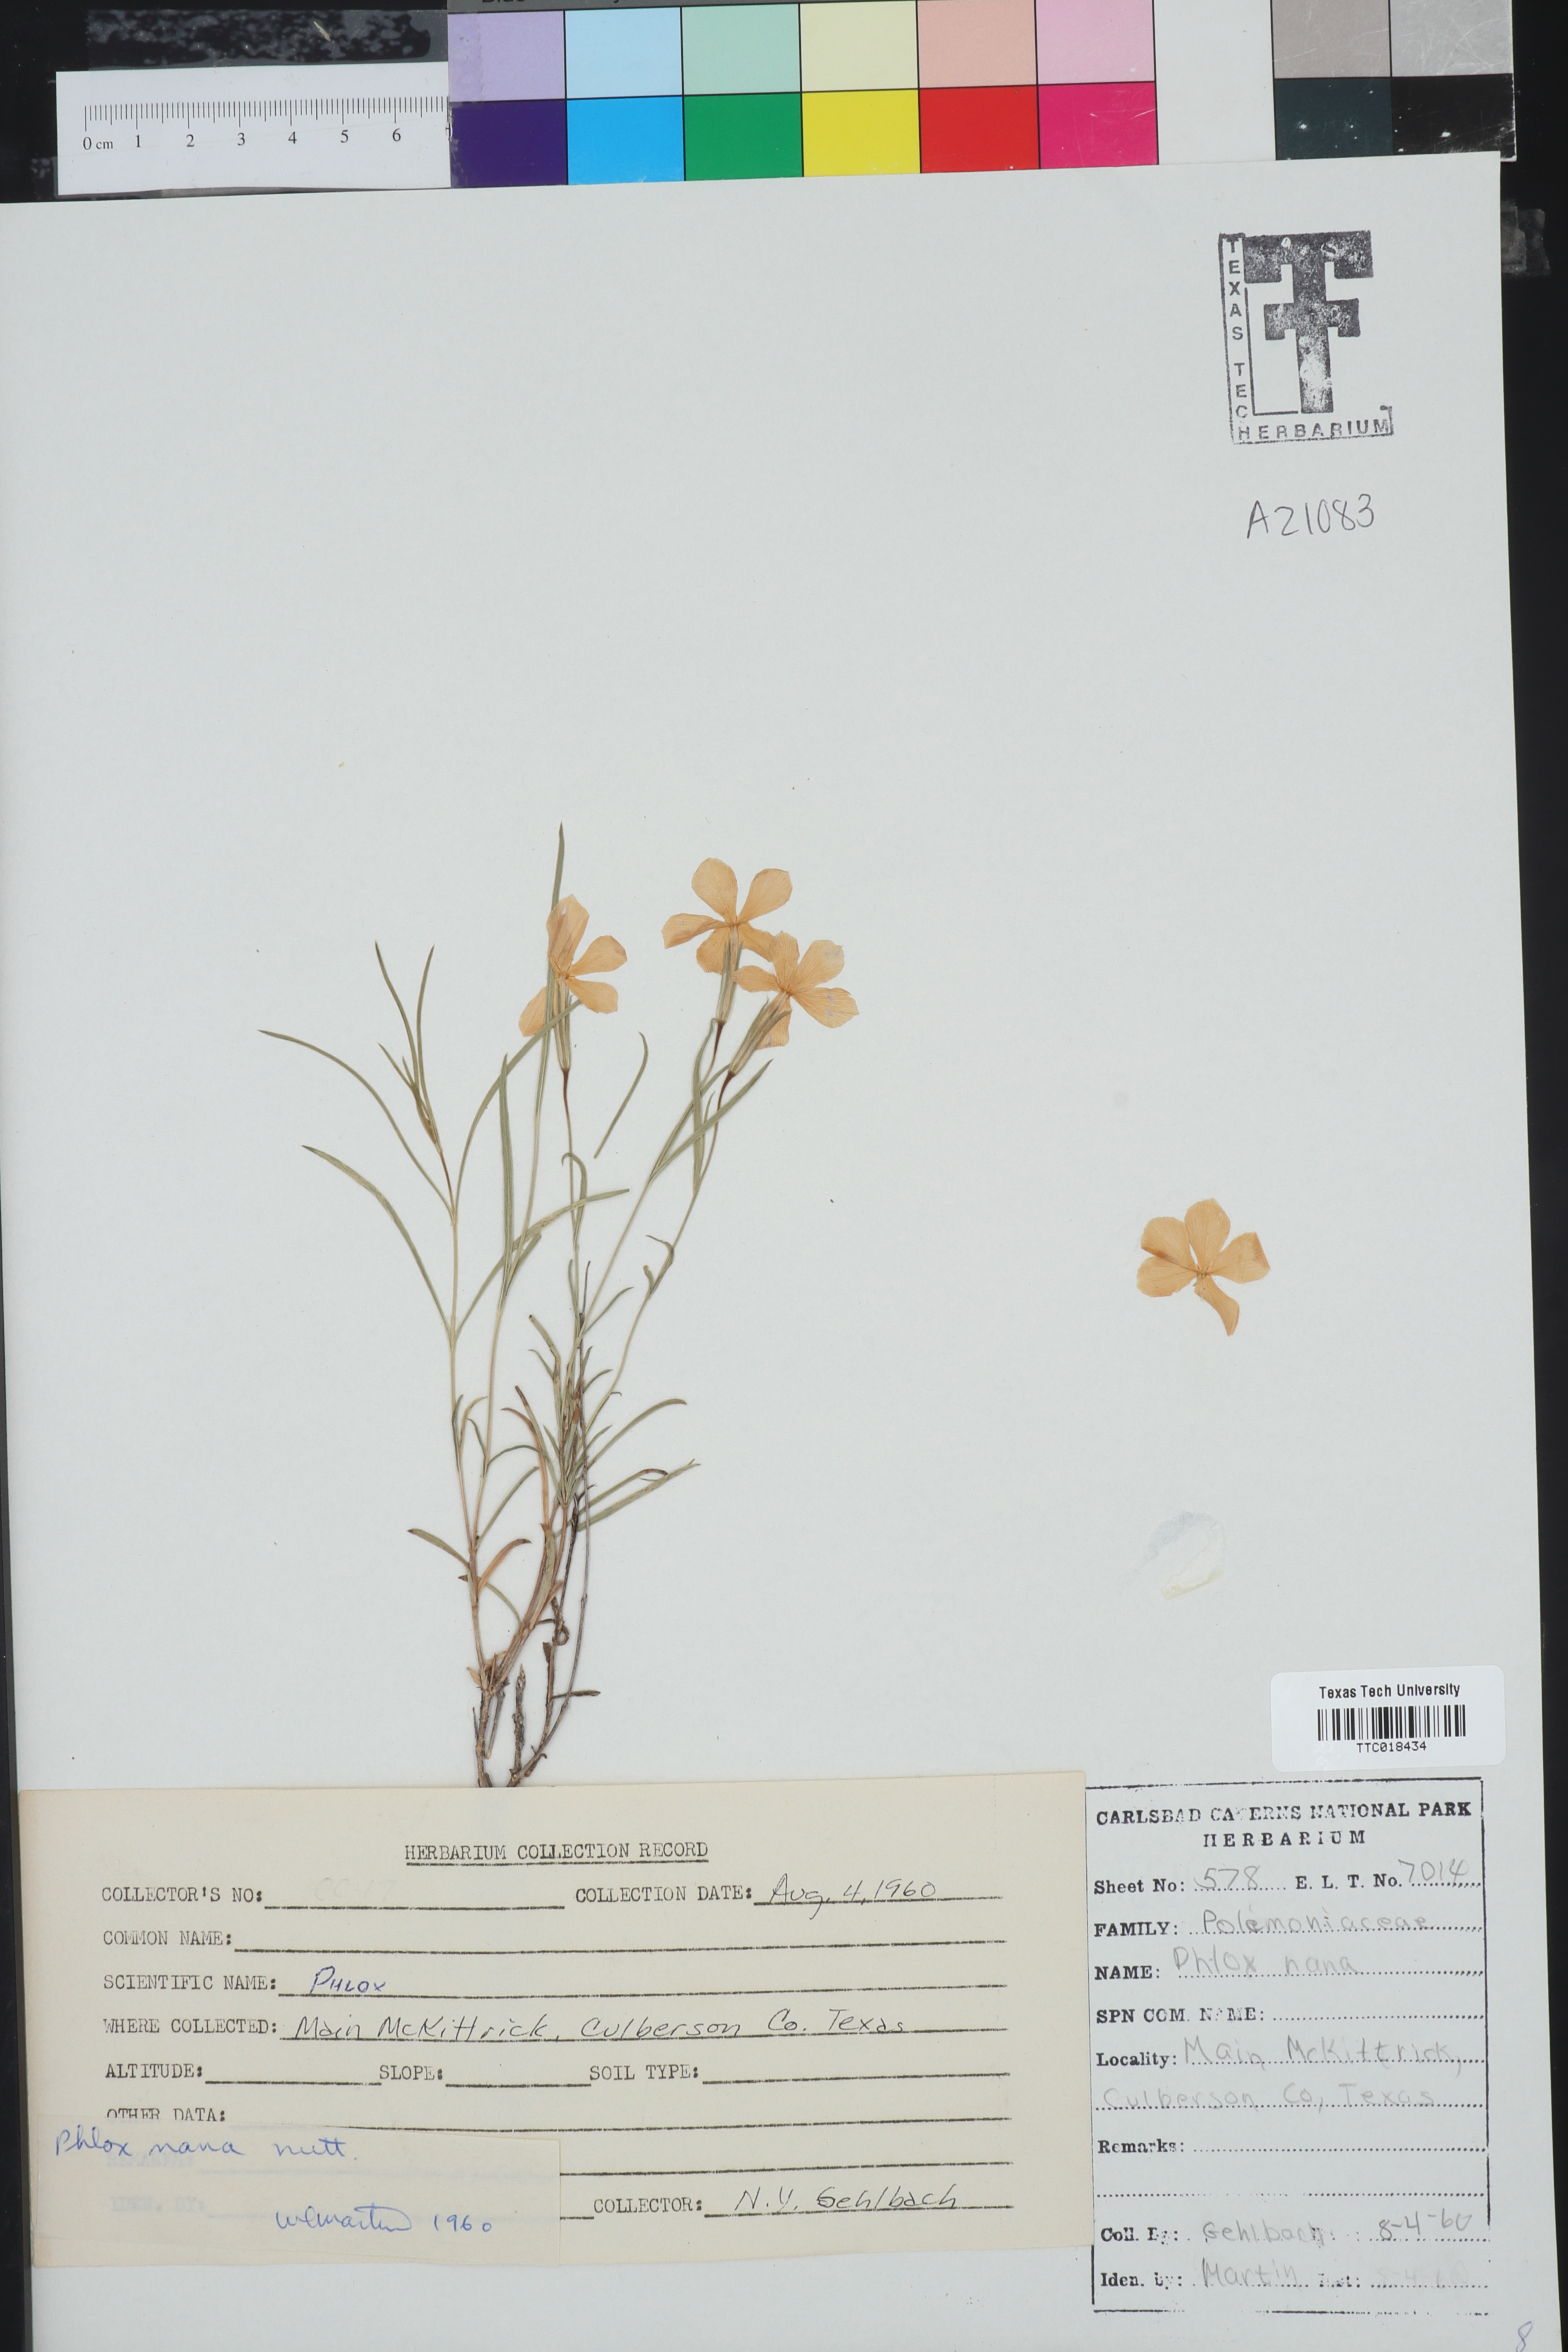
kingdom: Plantae
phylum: Tracheophyta
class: Magnoliopsida
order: Ericales
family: Polemoniaceae
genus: Phlox
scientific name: Phlox nana
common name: Santa fe phlox
